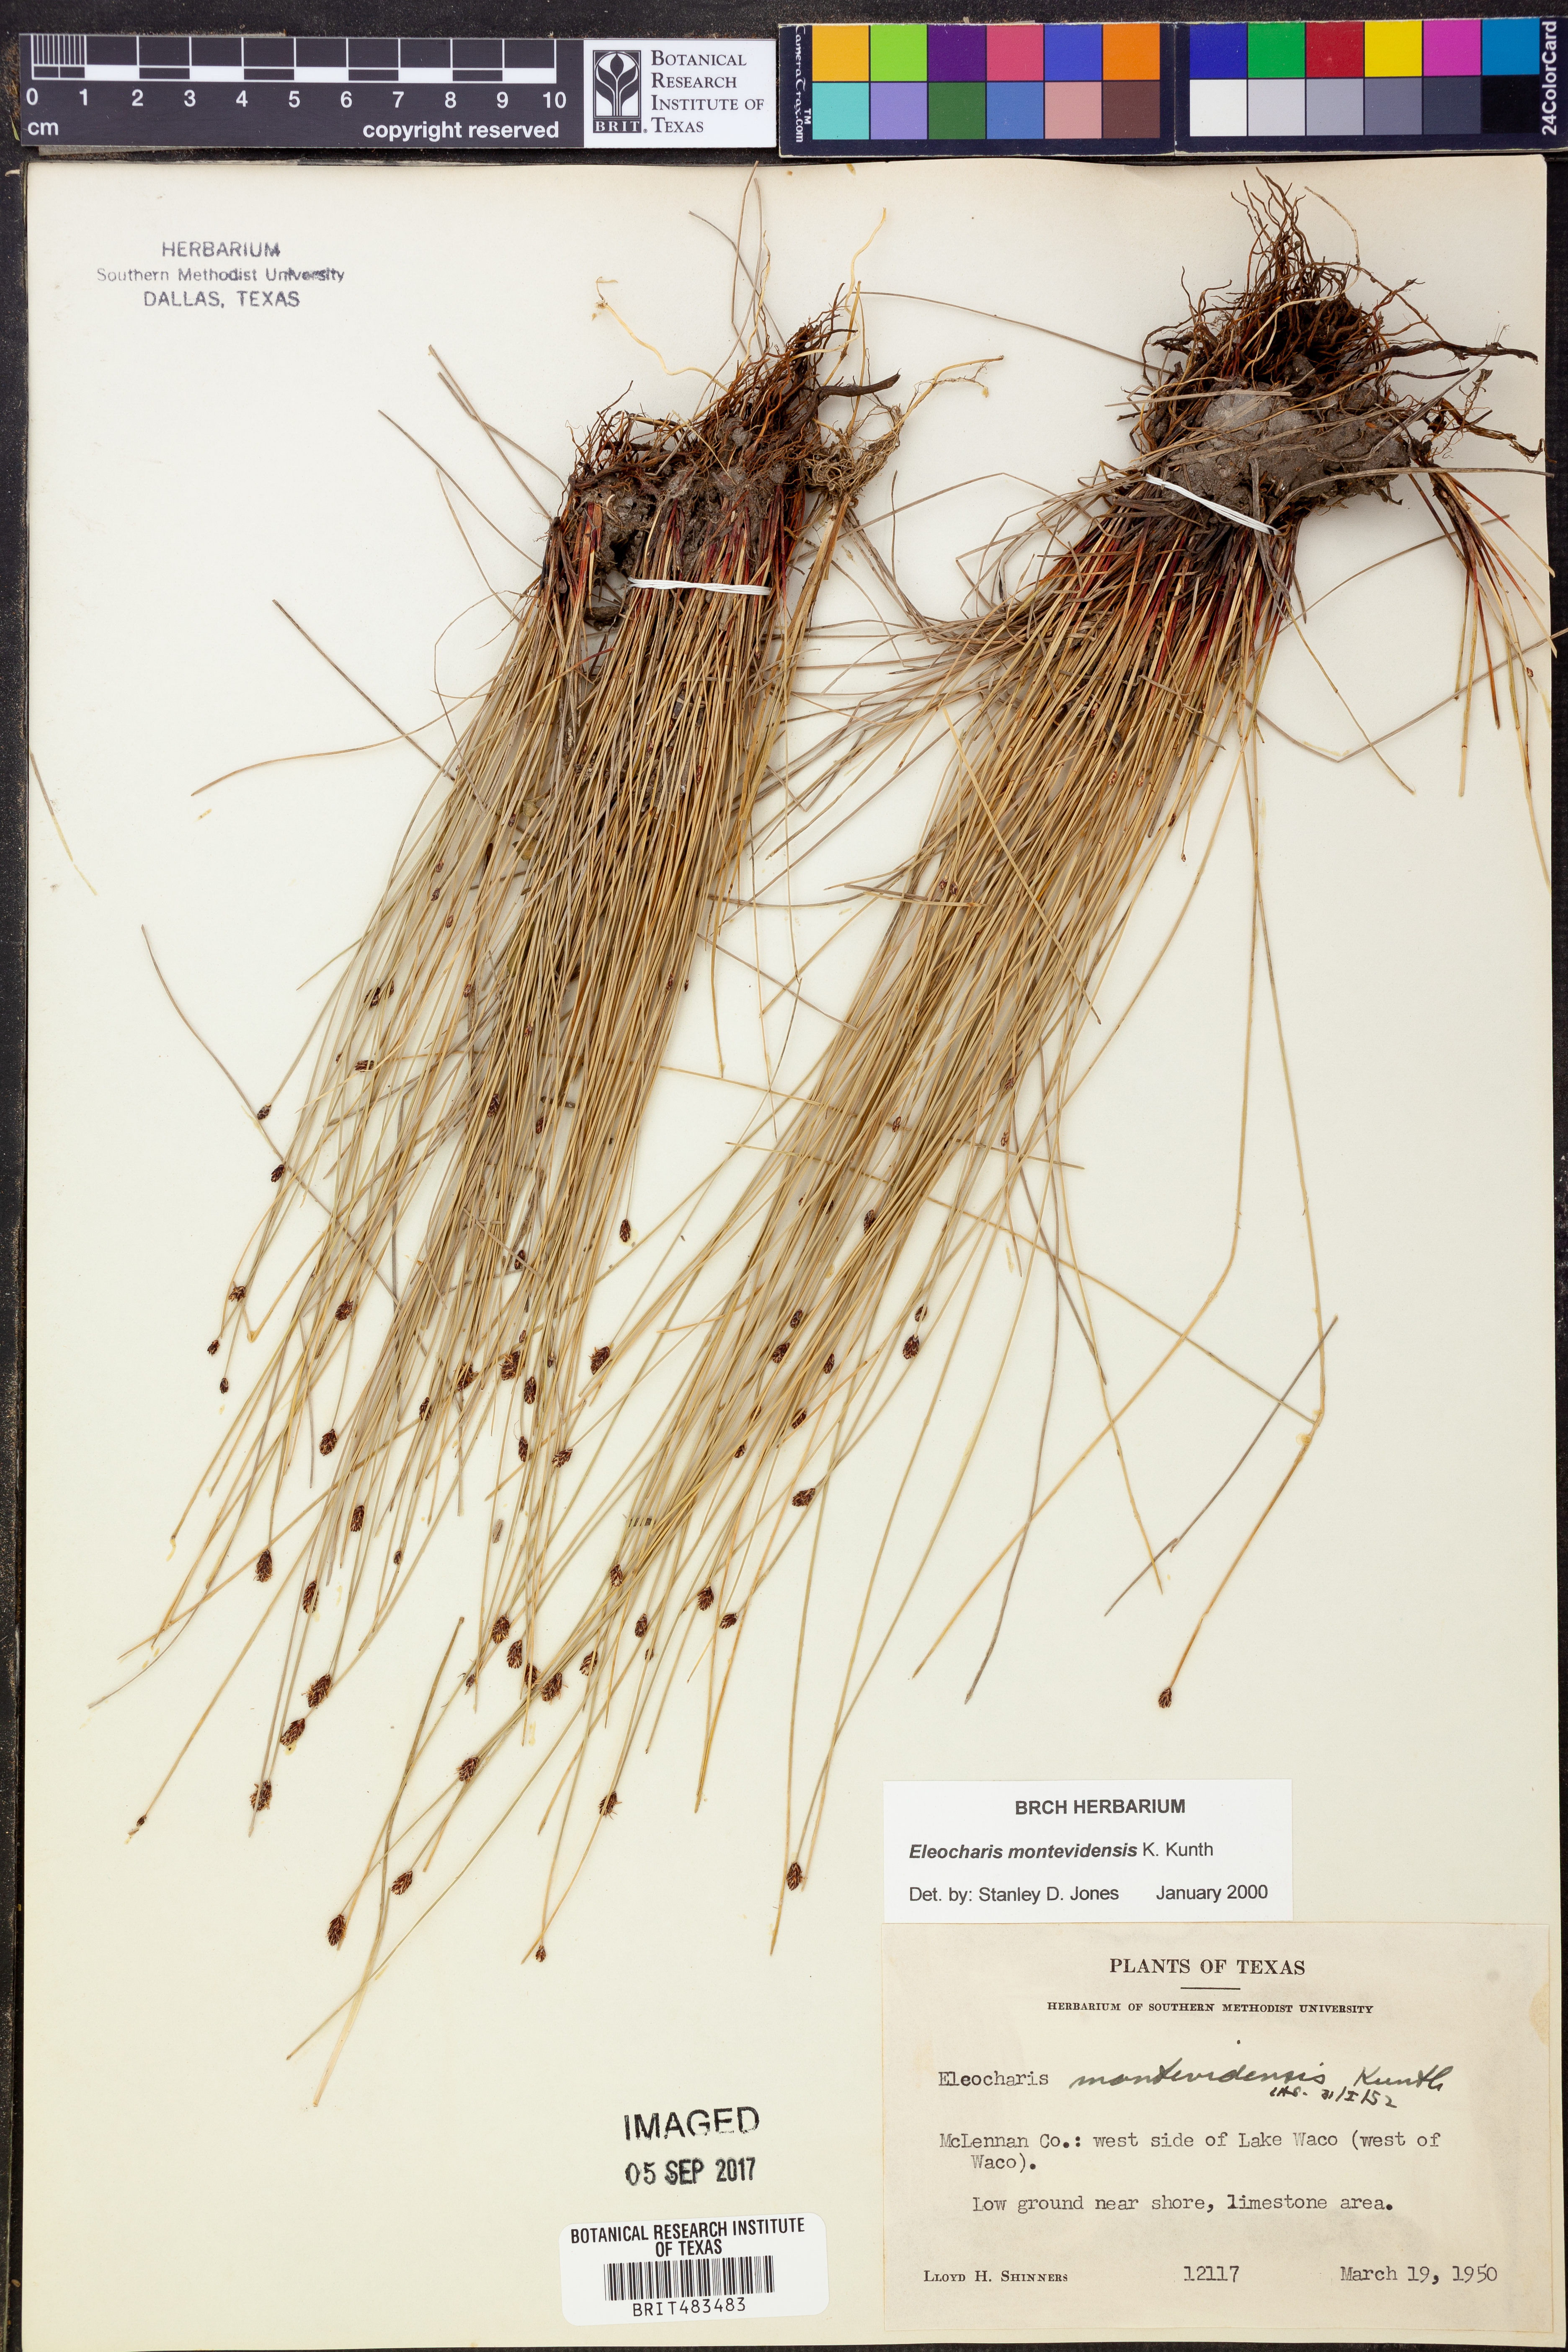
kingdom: Plantae
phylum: Tracheophyta
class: Liliopsida
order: Poales
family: Cyperaceae
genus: Eleocharis
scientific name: Eleocharis montevidensis
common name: Sand spike-rush
